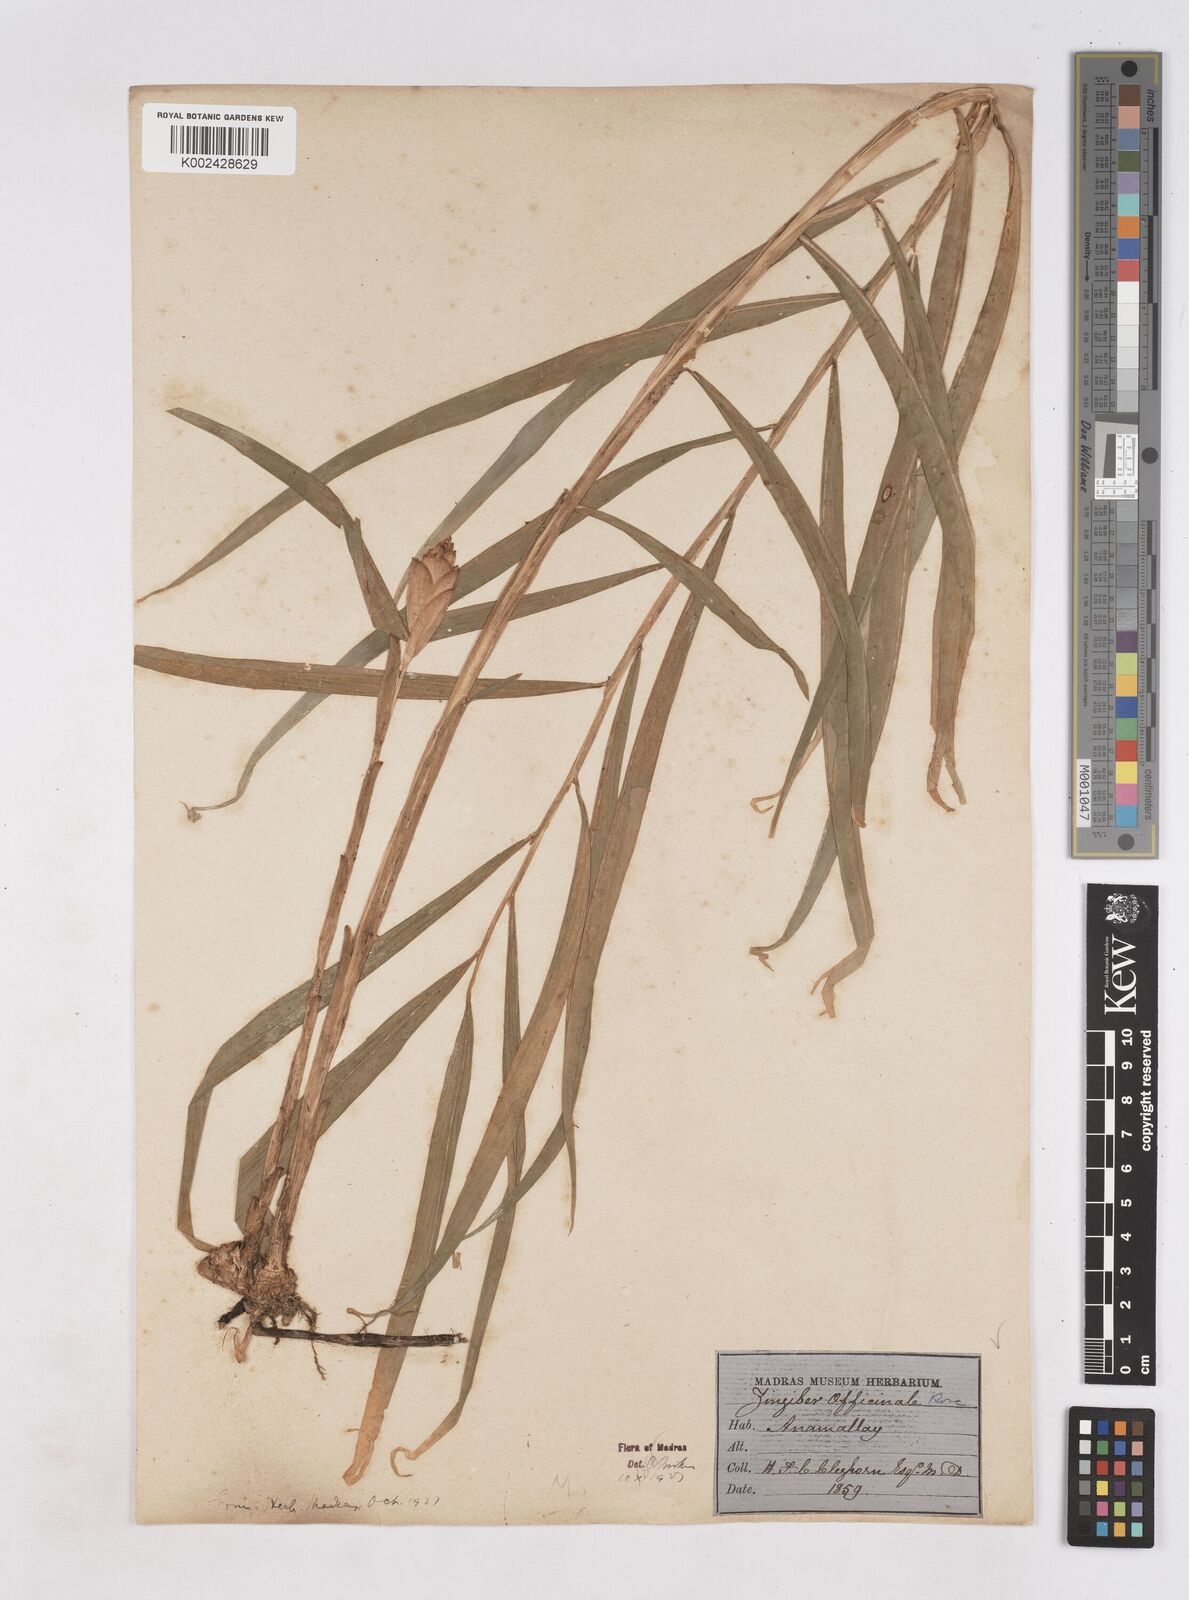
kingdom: Plantae
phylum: Tracheophyta
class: Liliopsida
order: Zingiberales
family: Zingiberaceae
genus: Zingiber
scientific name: Zingiber officinale
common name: Ginger
